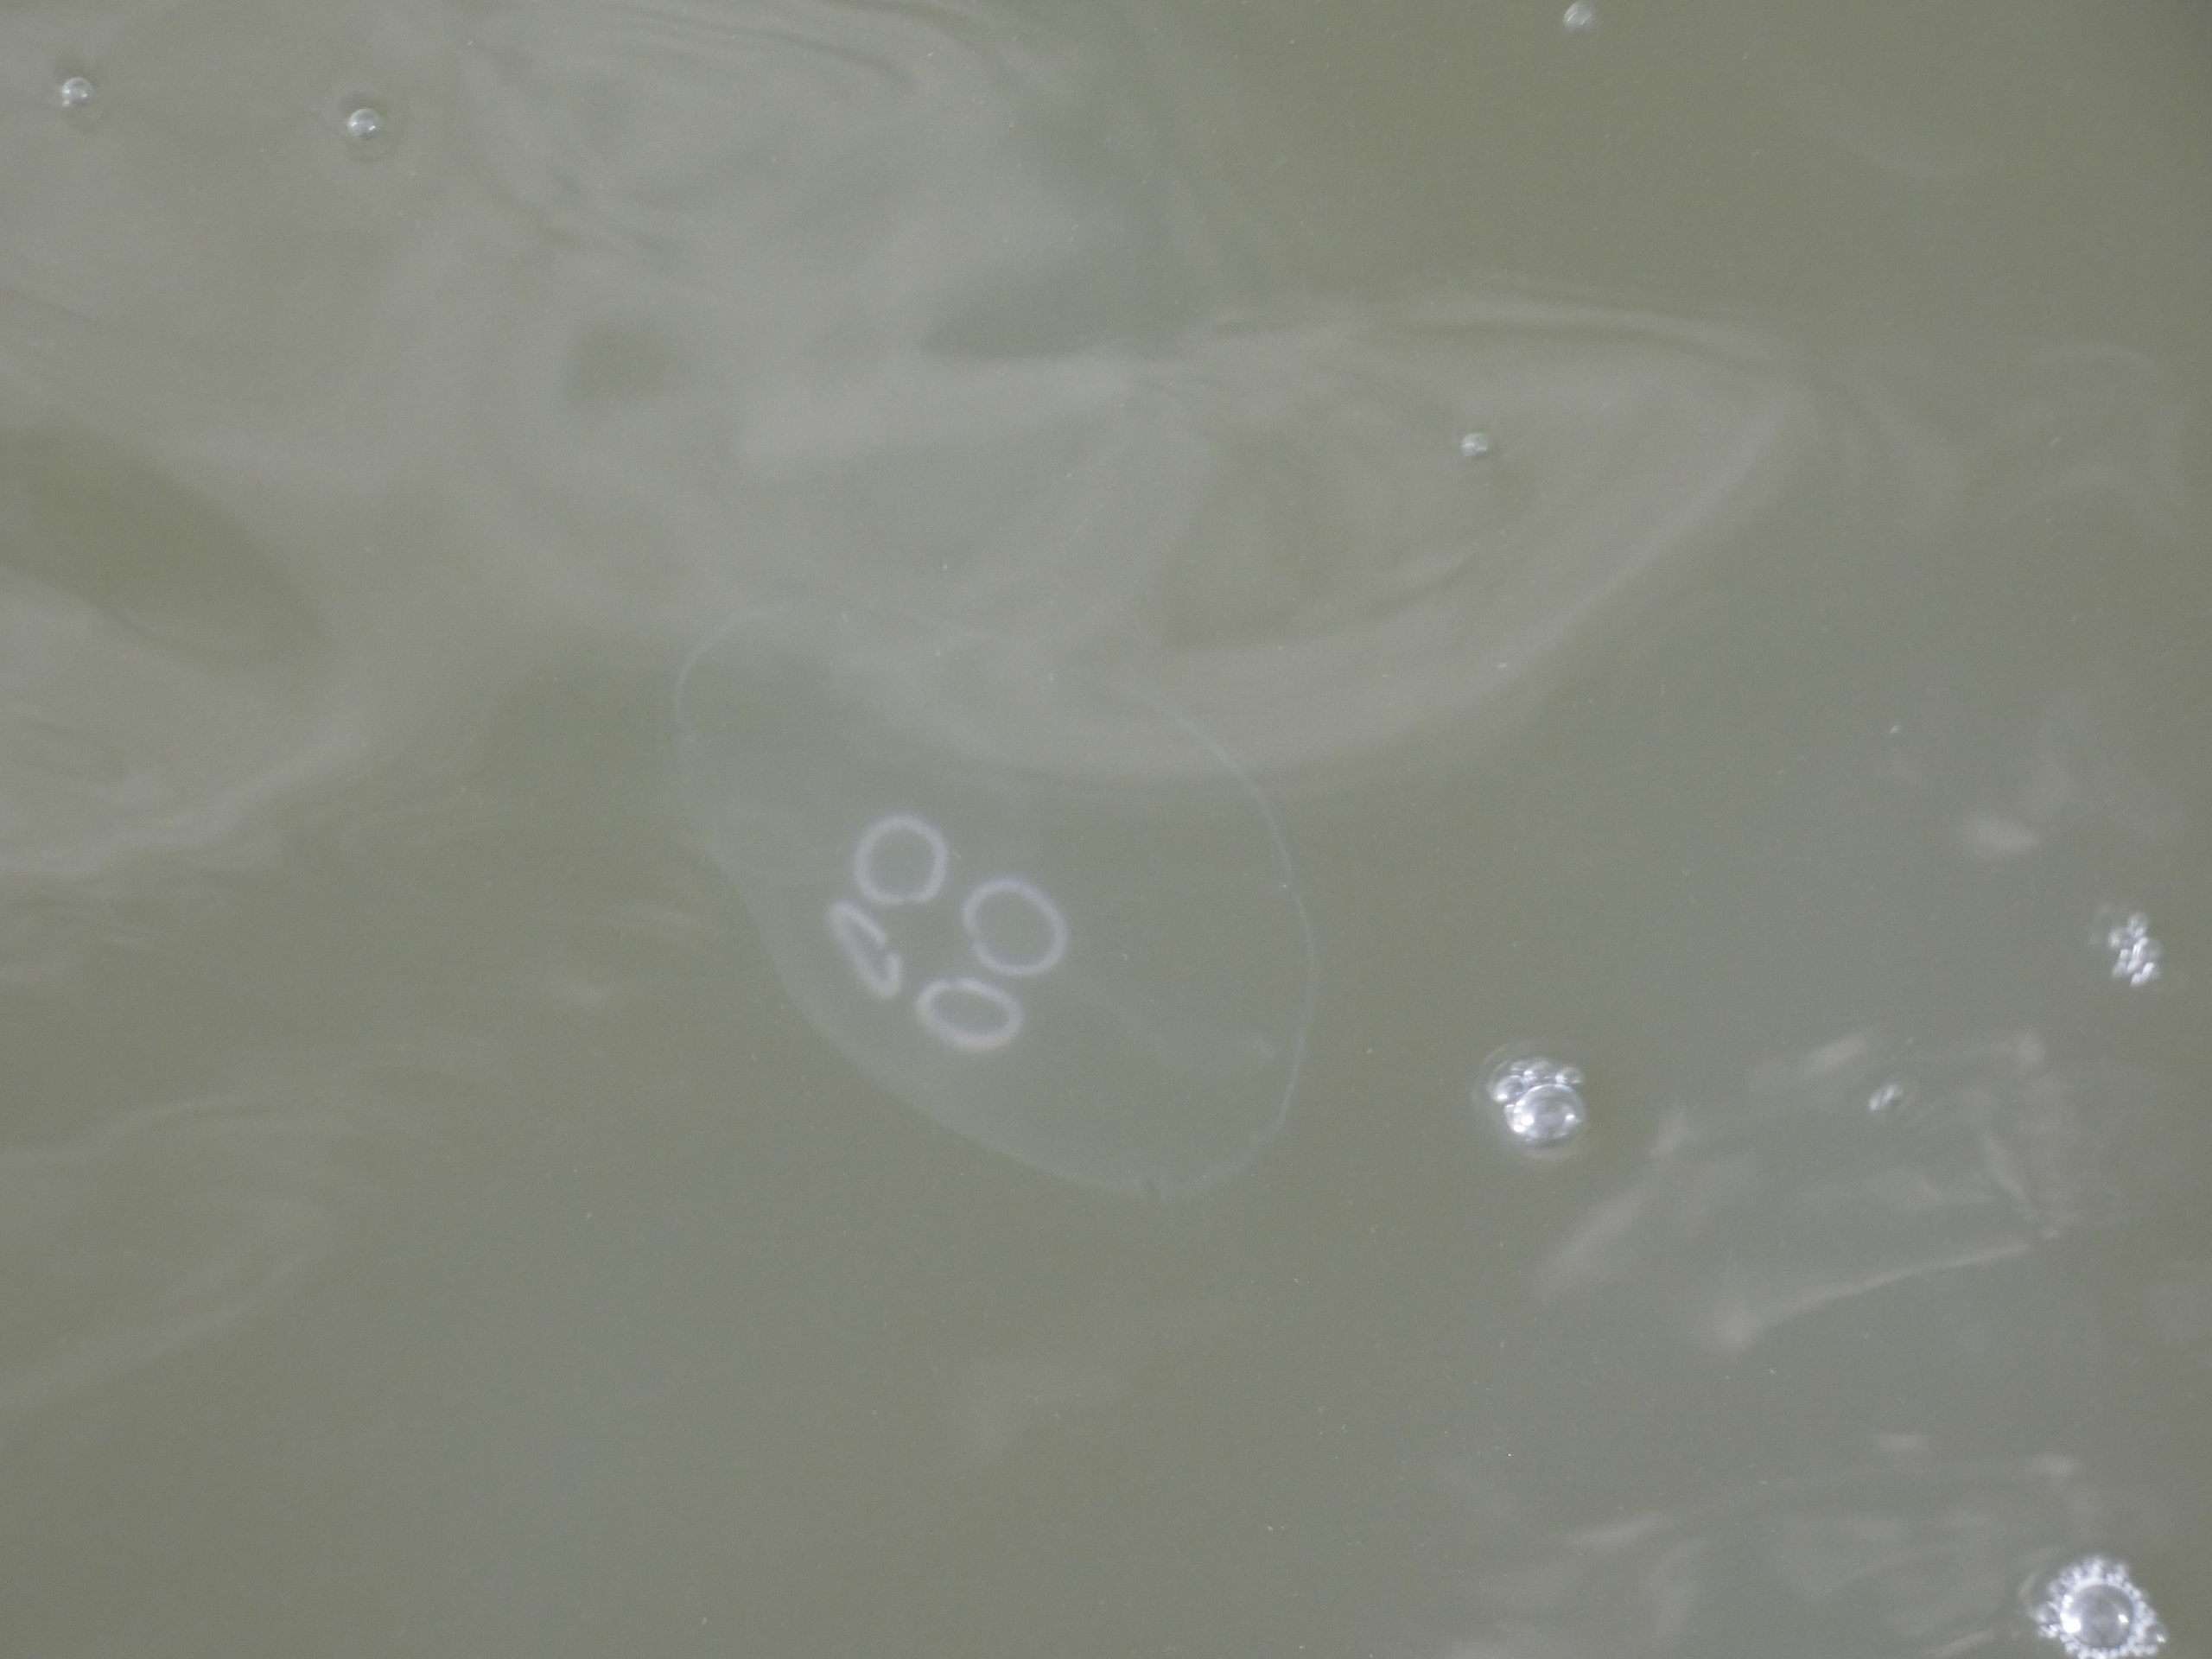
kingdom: Animalia
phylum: Cnidaria
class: Scyphozoa
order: Semaeostomeae
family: Ulmaridae
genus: Aurelia
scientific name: Aurelia aurita
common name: Almindelig vandmand
